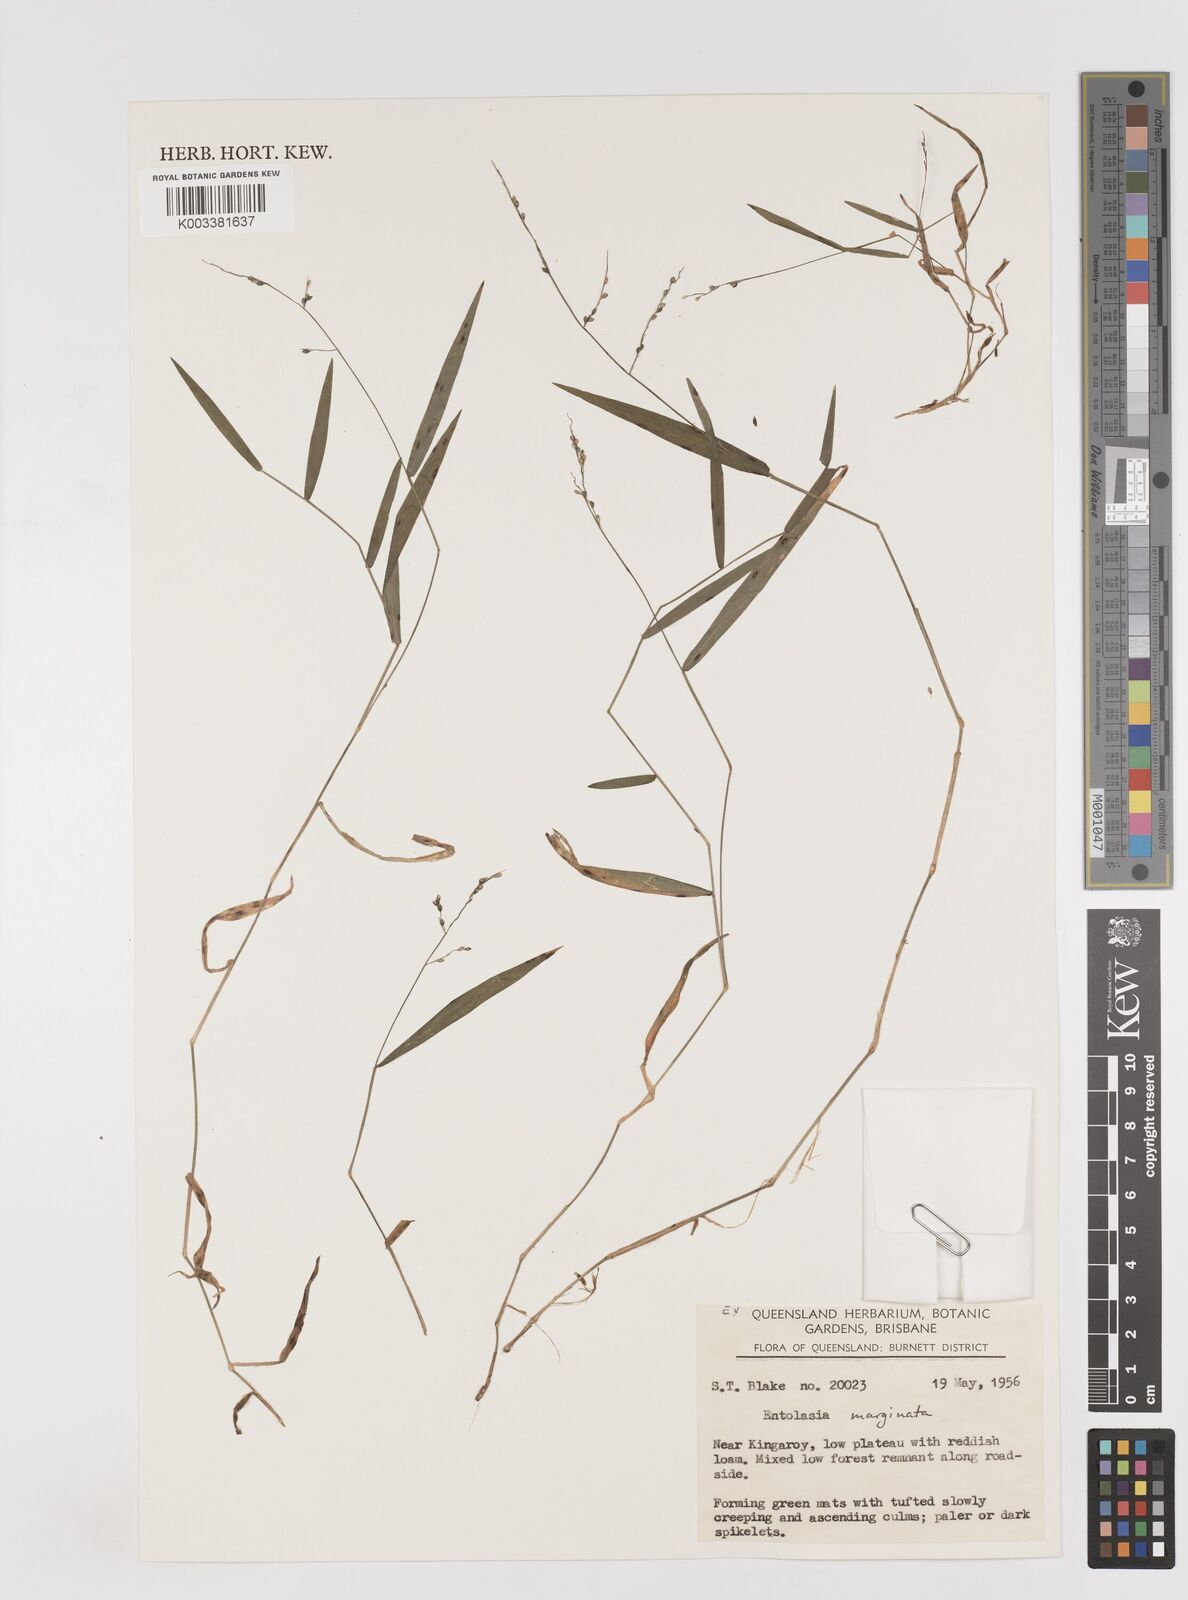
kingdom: Plantae
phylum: Tracheophyta
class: Liliopsida
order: Poales
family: Poaceae
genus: Entolasia
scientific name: Entolasia marginata
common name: Australian panicgrass
